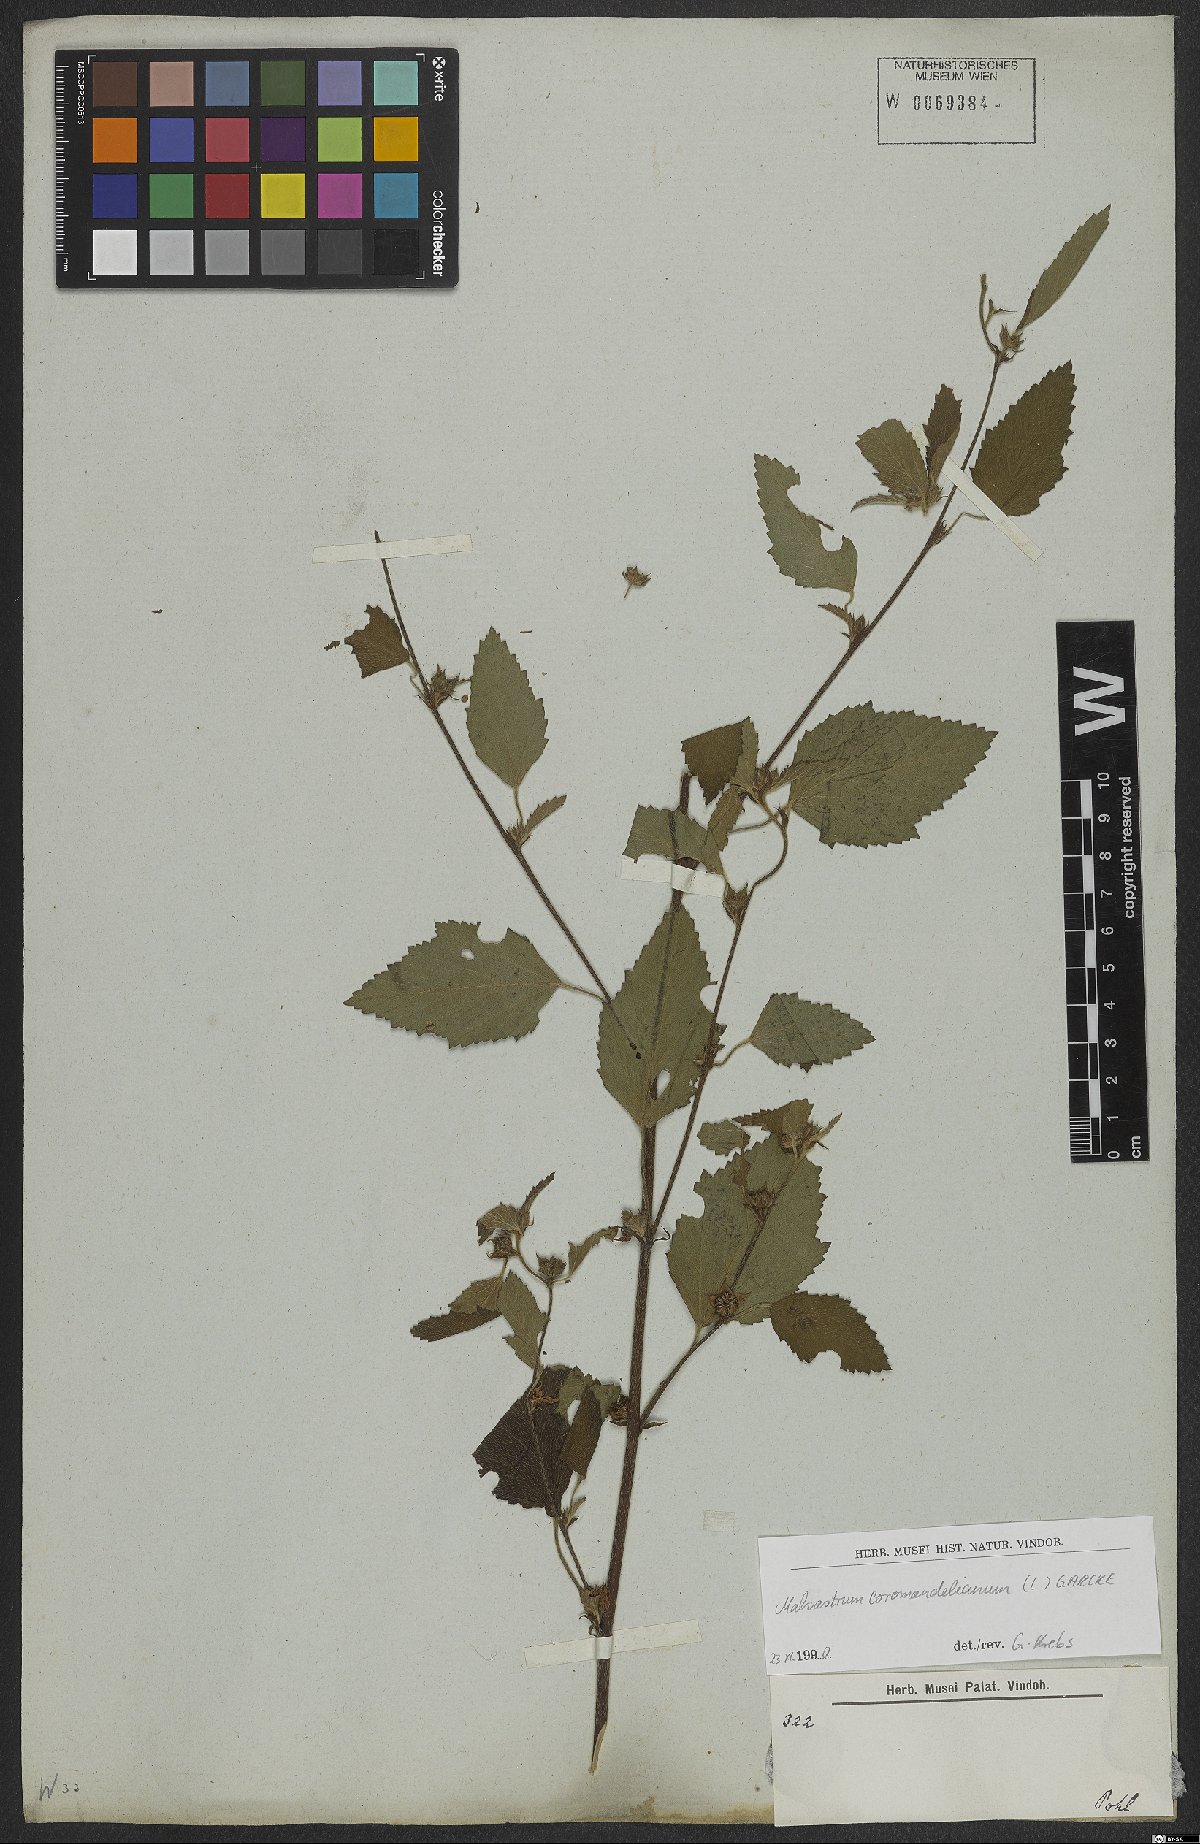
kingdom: Plantae
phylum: Tracheophyta
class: Magnoliopsida
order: Malvales
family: Malvaceae
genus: Malvastrum
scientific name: Malvastrum coromandelianum
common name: Threelobe false mallow
